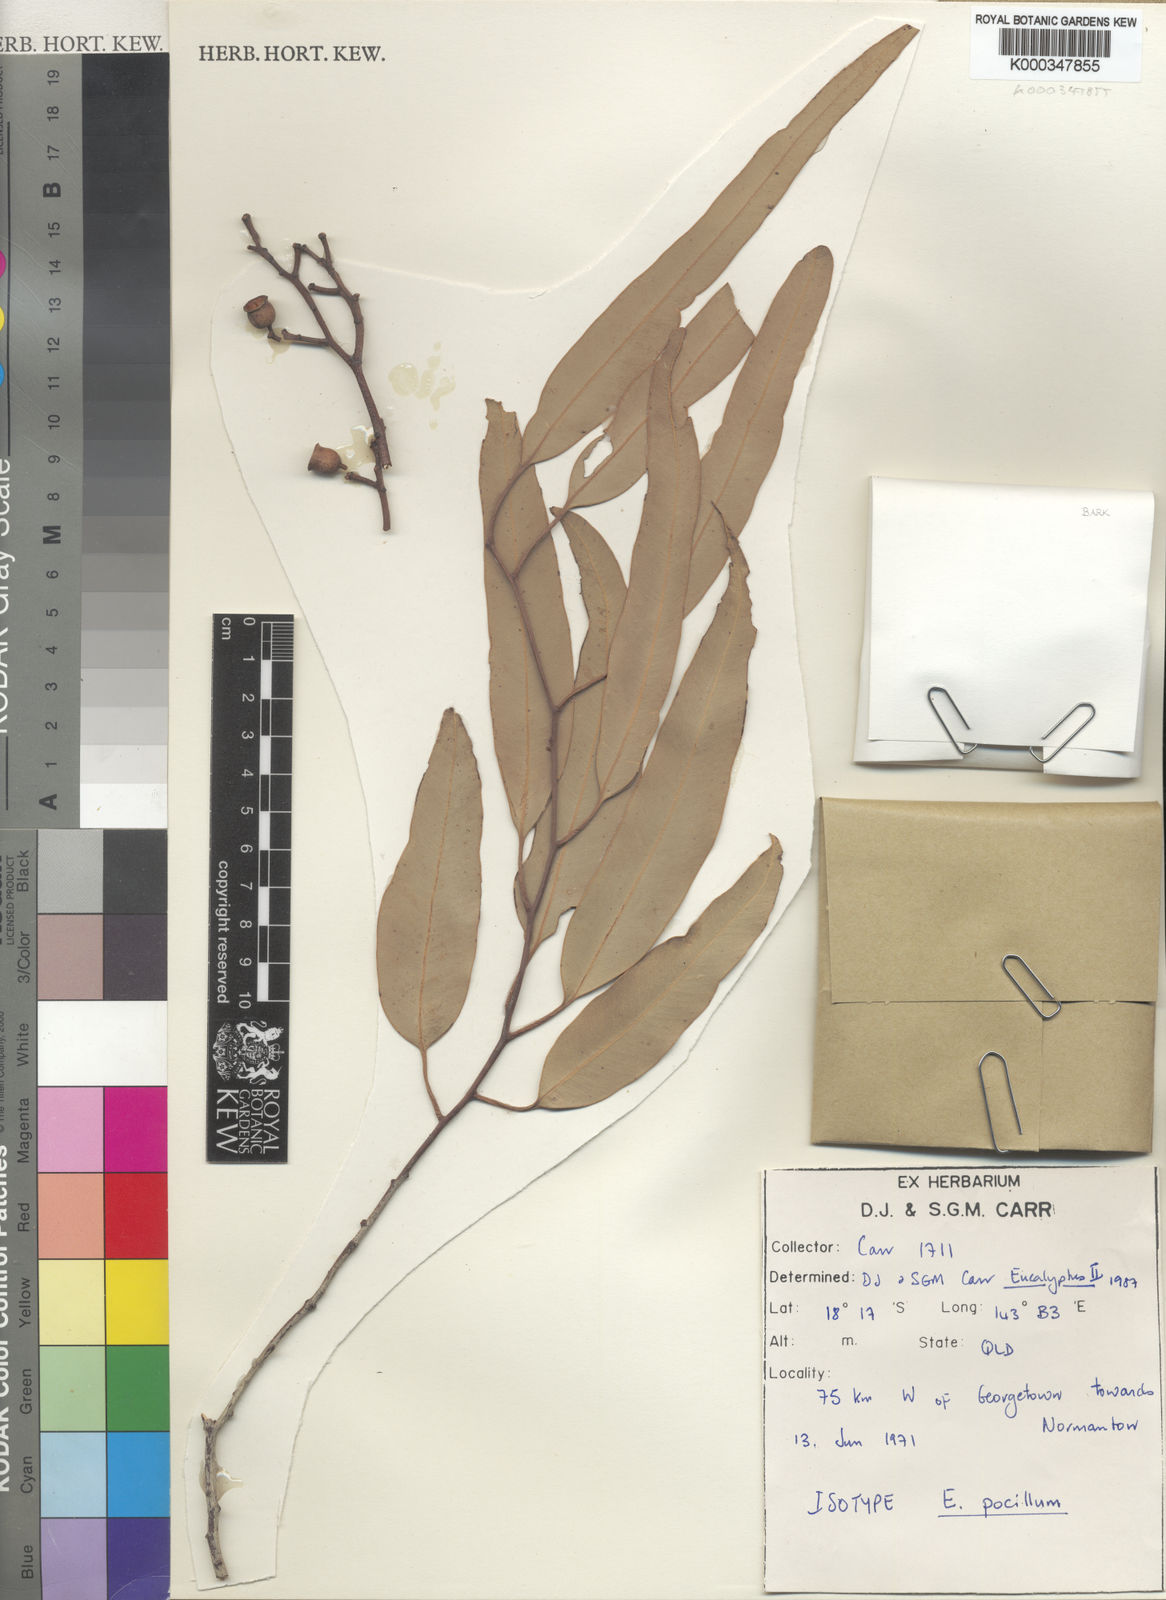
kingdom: Plantae
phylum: Tracheophyta
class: Magnoliopsida
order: Myrtales
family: Myrtaceae
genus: Corymbia
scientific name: Corymbia pocillum
